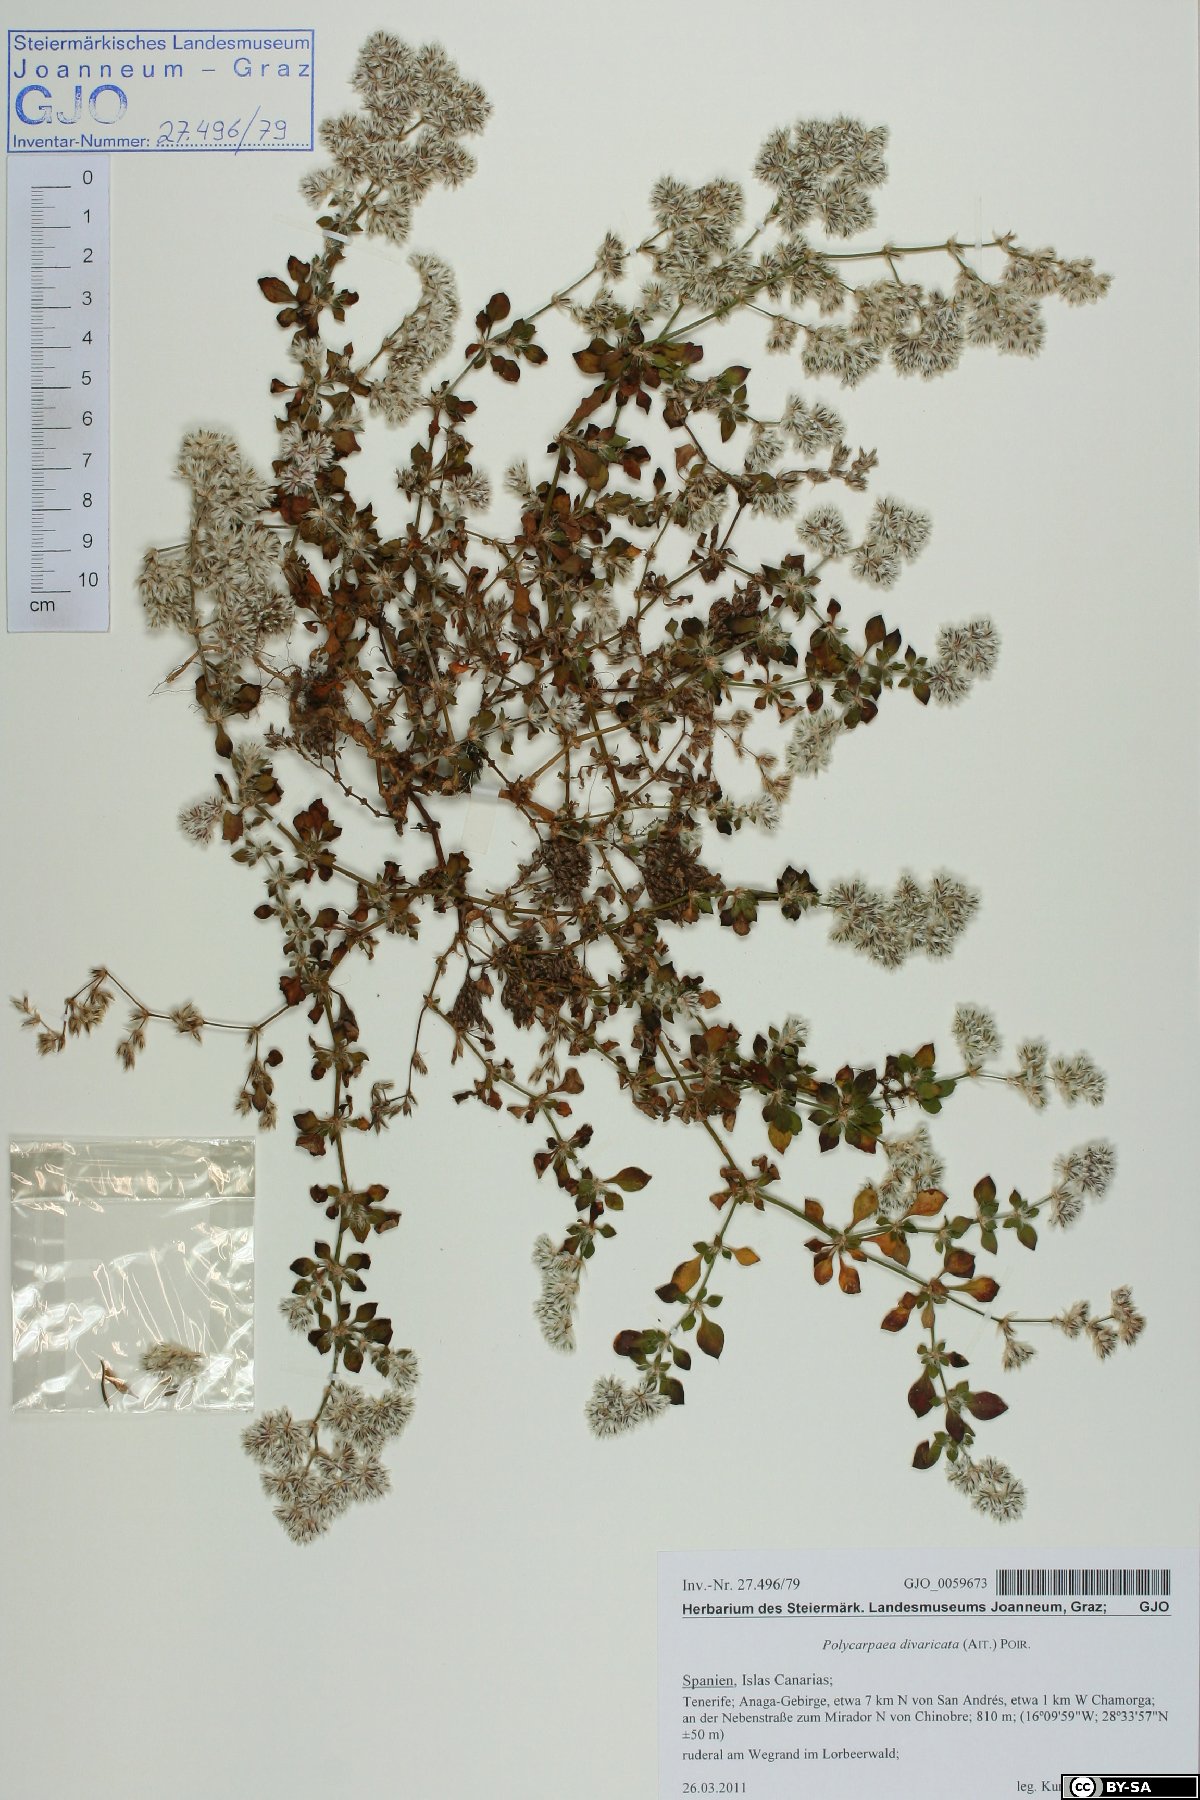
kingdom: Plantae
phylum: Tracheophyta
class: Magnoliopsida
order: Caryophyllales
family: Caryophyllaceae
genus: Polycarpaea
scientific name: Polycarpaea divaricata
